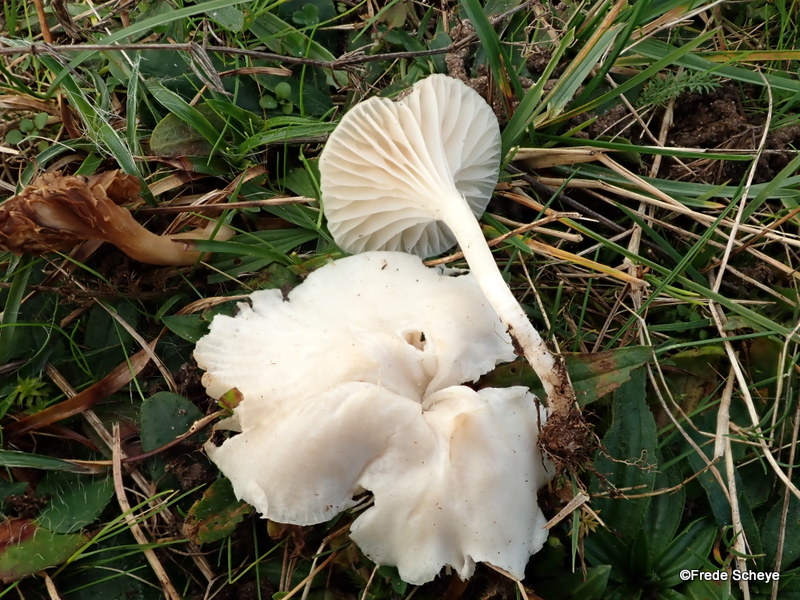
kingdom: Fungi
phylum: Basidiomycota
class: Agaricomycetes
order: Agaricales
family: Hygrophoraceae
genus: Cuphophyllus
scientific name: Cuphophyllus virgineus
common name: snehvid vokshat
